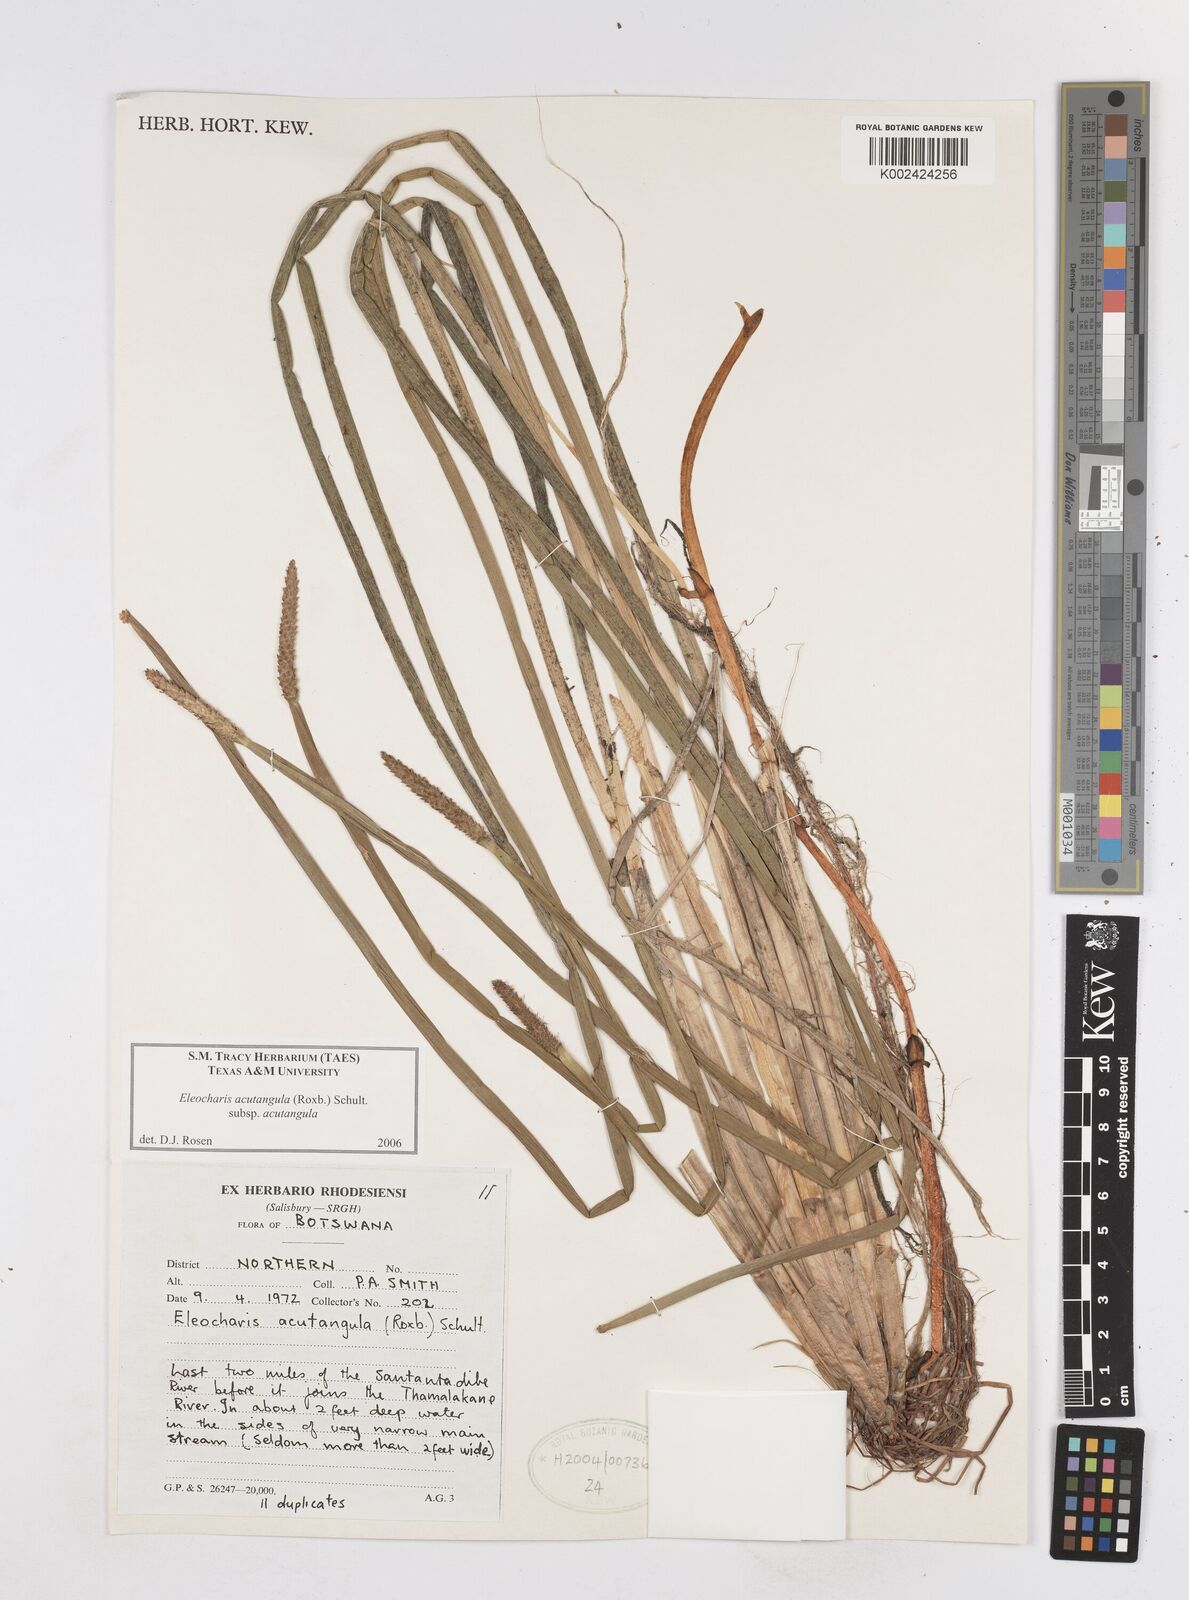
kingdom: Plantae
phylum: Tracheophyta
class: Liliopsida
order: Poales
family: Cyperaceae
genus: Eleocharis
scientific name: Eleocharis acutangula
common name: Acute spikerush
